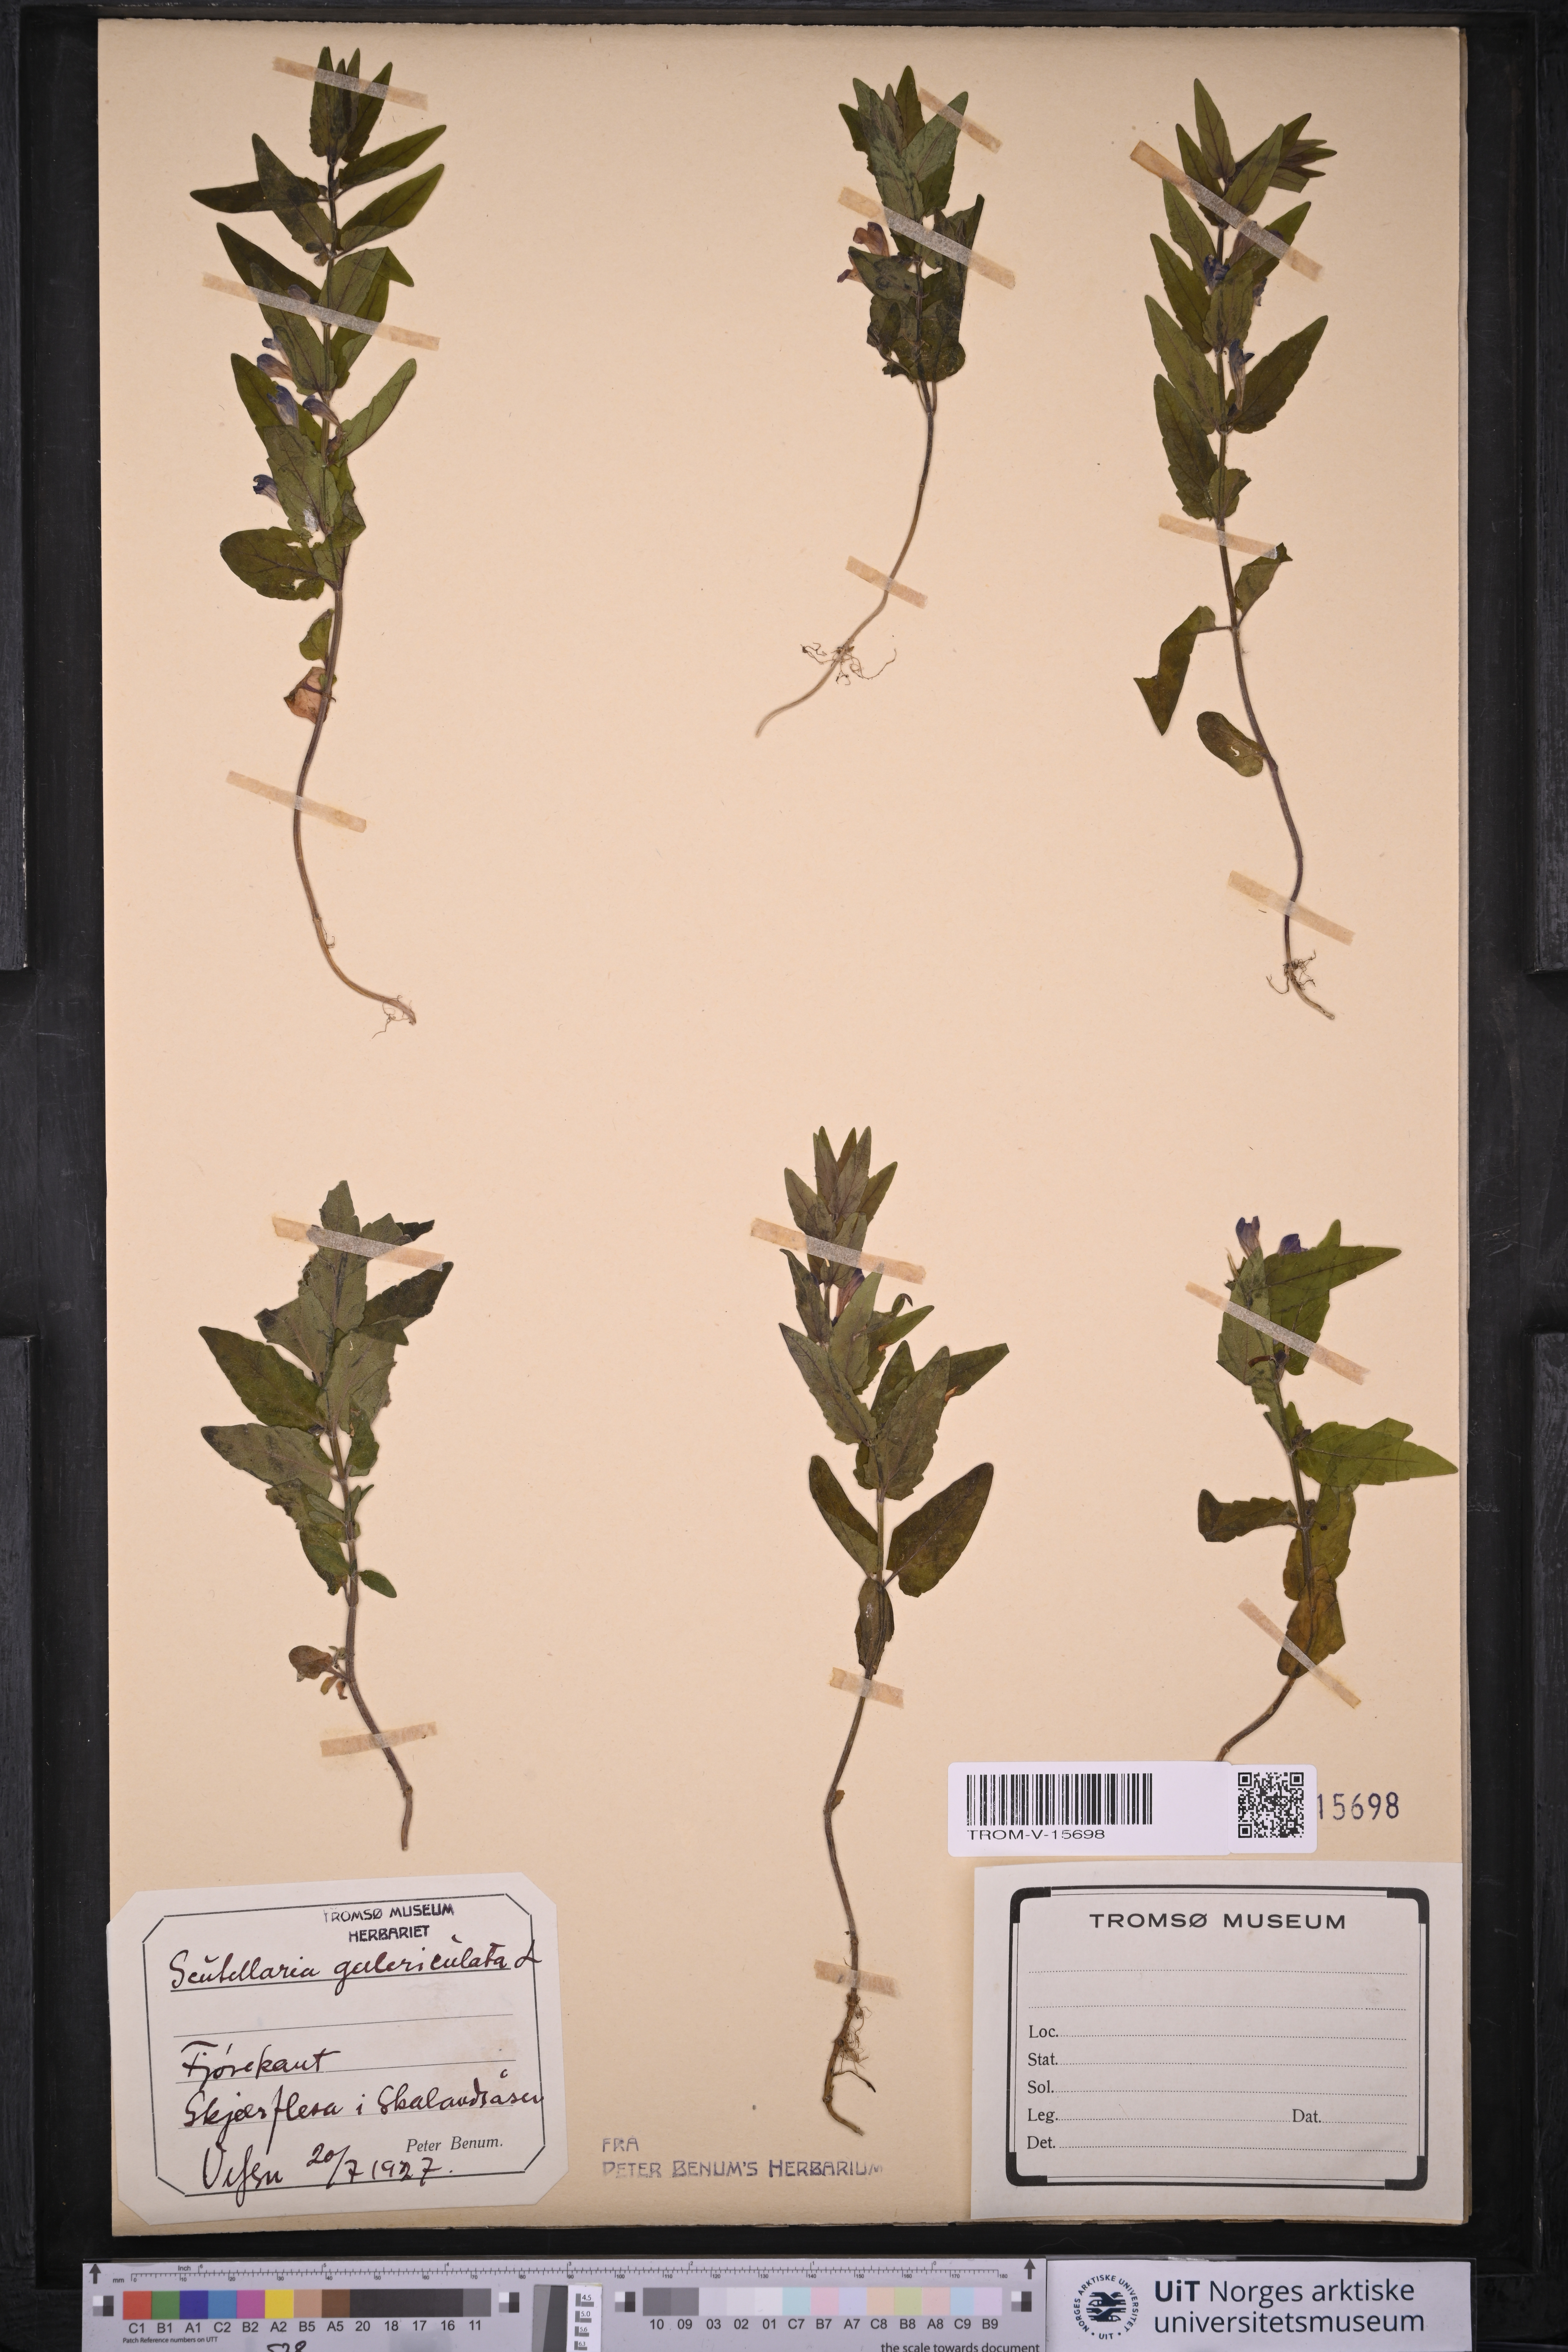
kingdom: Plantae
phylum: Tracheophyta
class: Magnoliopsida
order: Lamiales
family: Lamiaceae
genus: Scutellaria
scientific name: Scutellaria galericulata
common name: Skullcap
